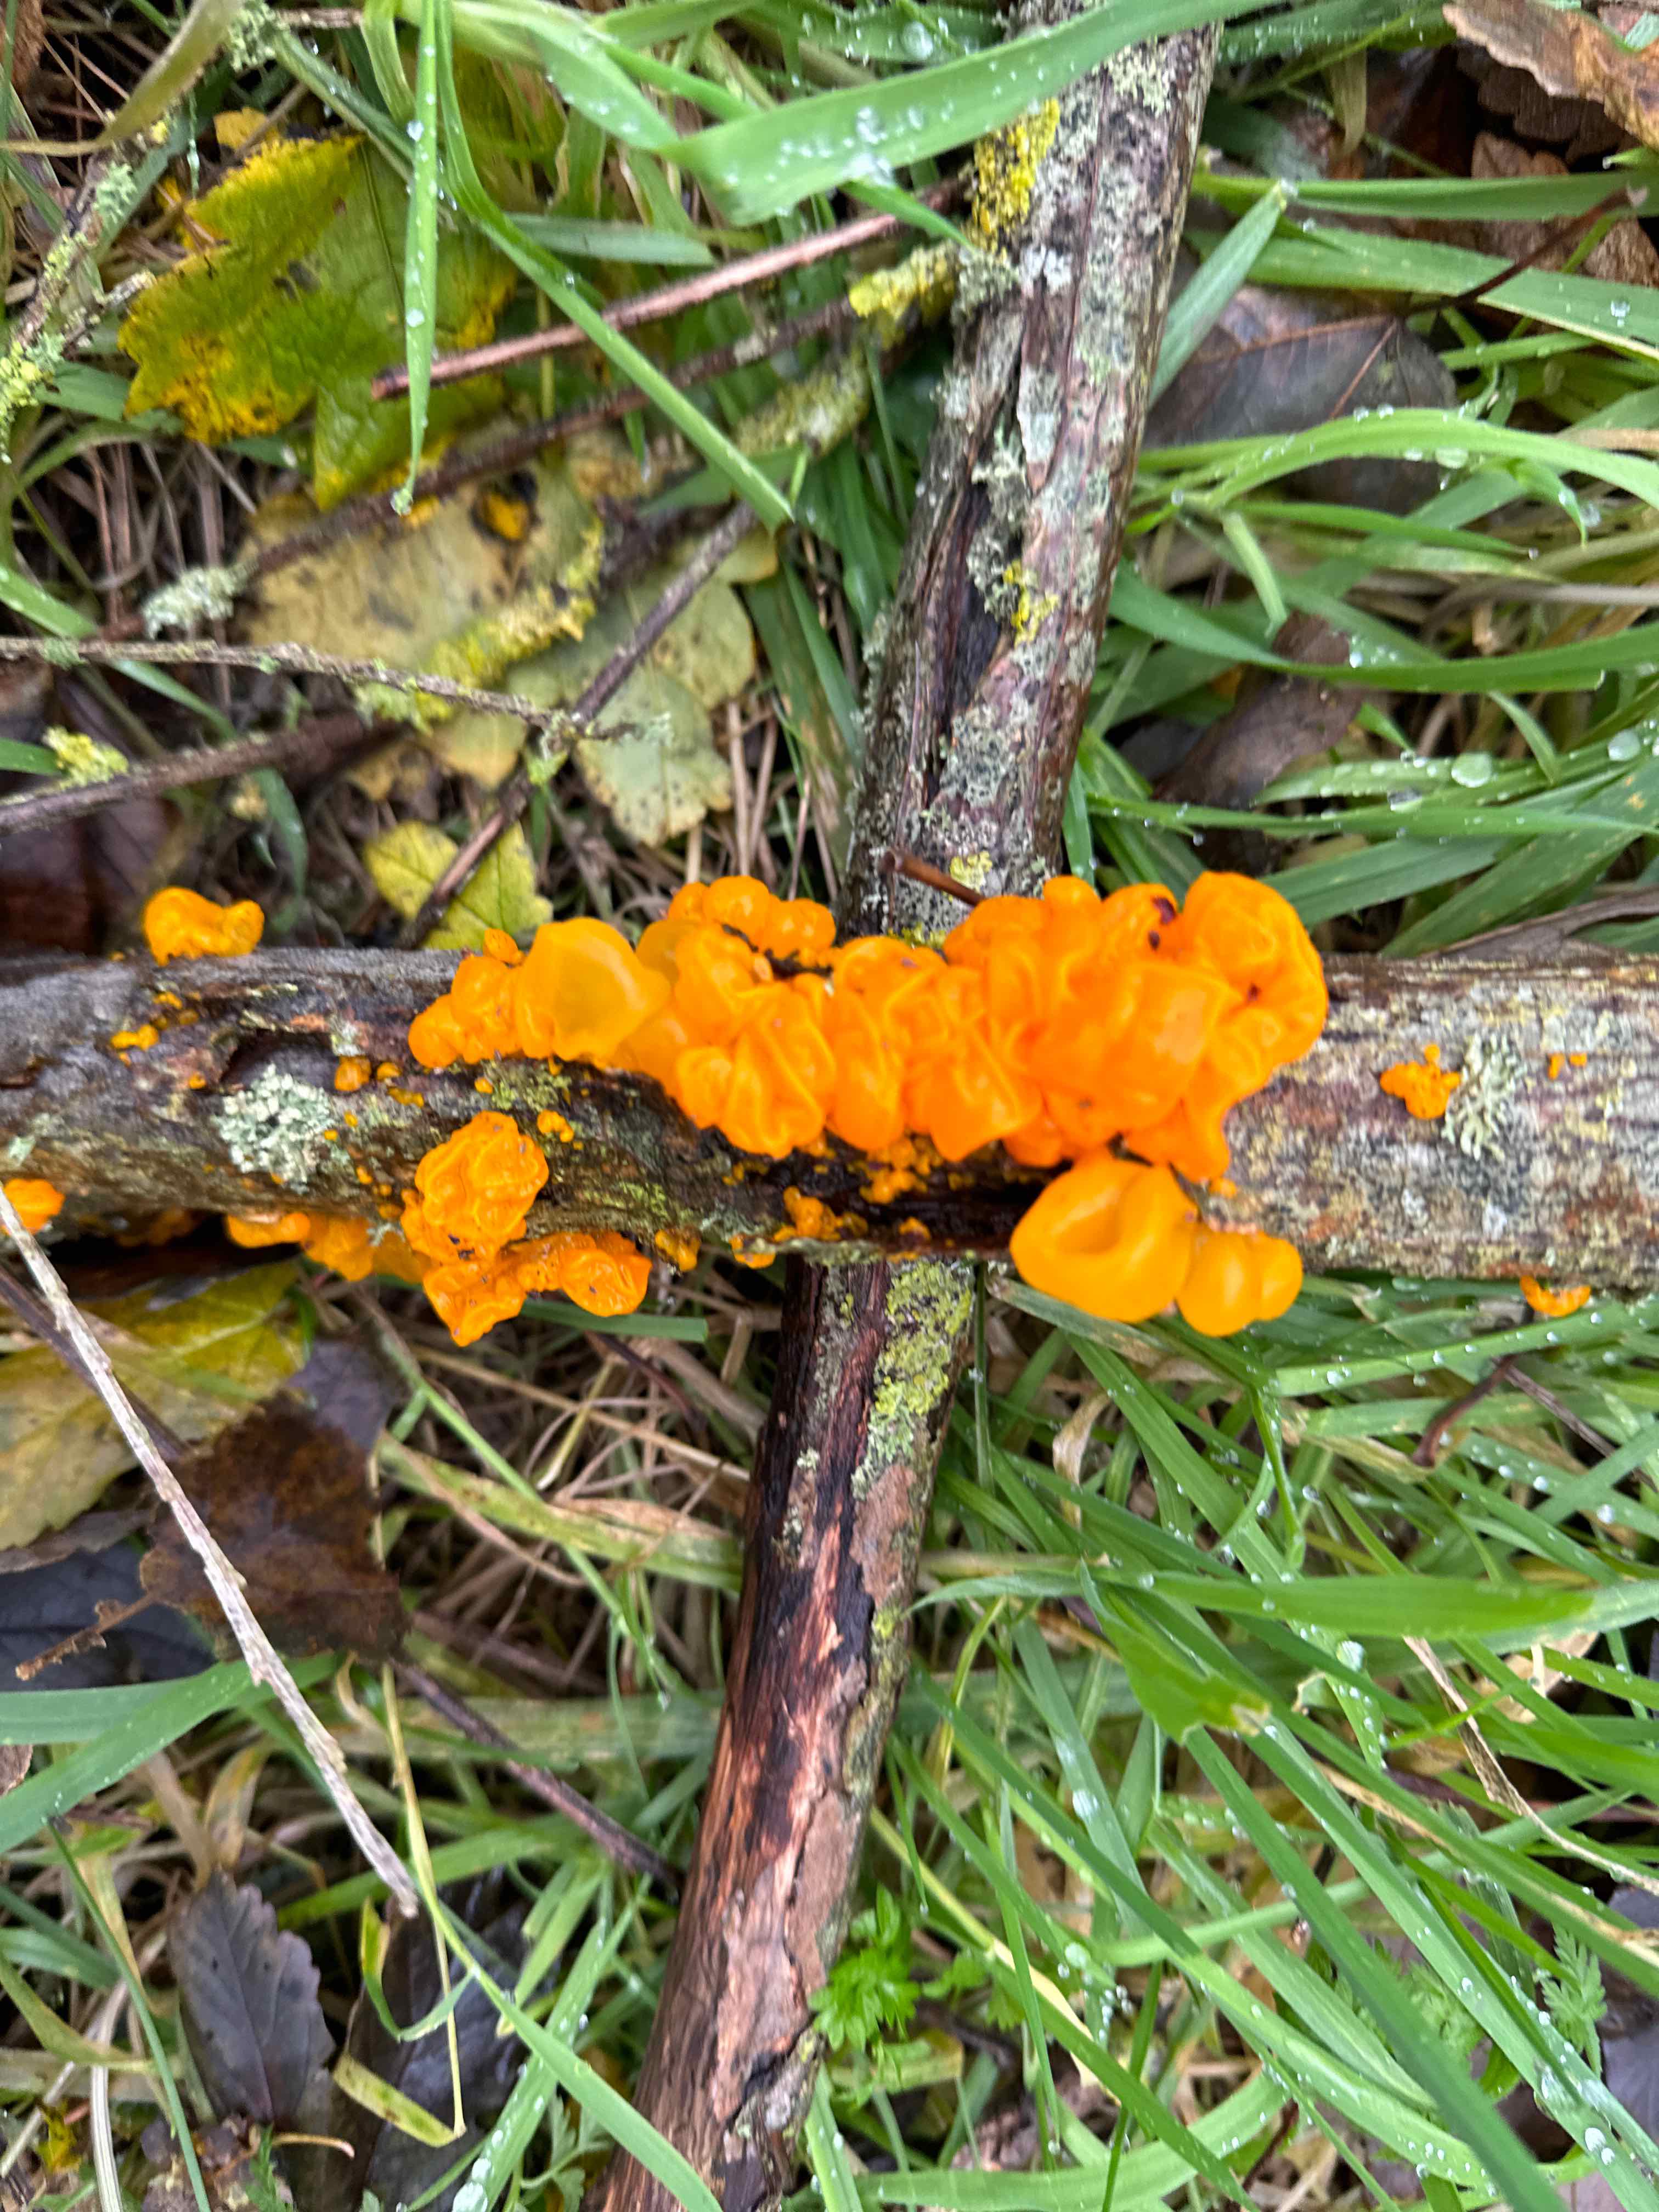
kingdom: Fungi
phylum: Basidiomycota
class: Tremellomycetes
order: Tremellales
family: Tremellaceae
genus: Tremella
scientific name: Tremella mesenterica
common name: gul bævresvamp
